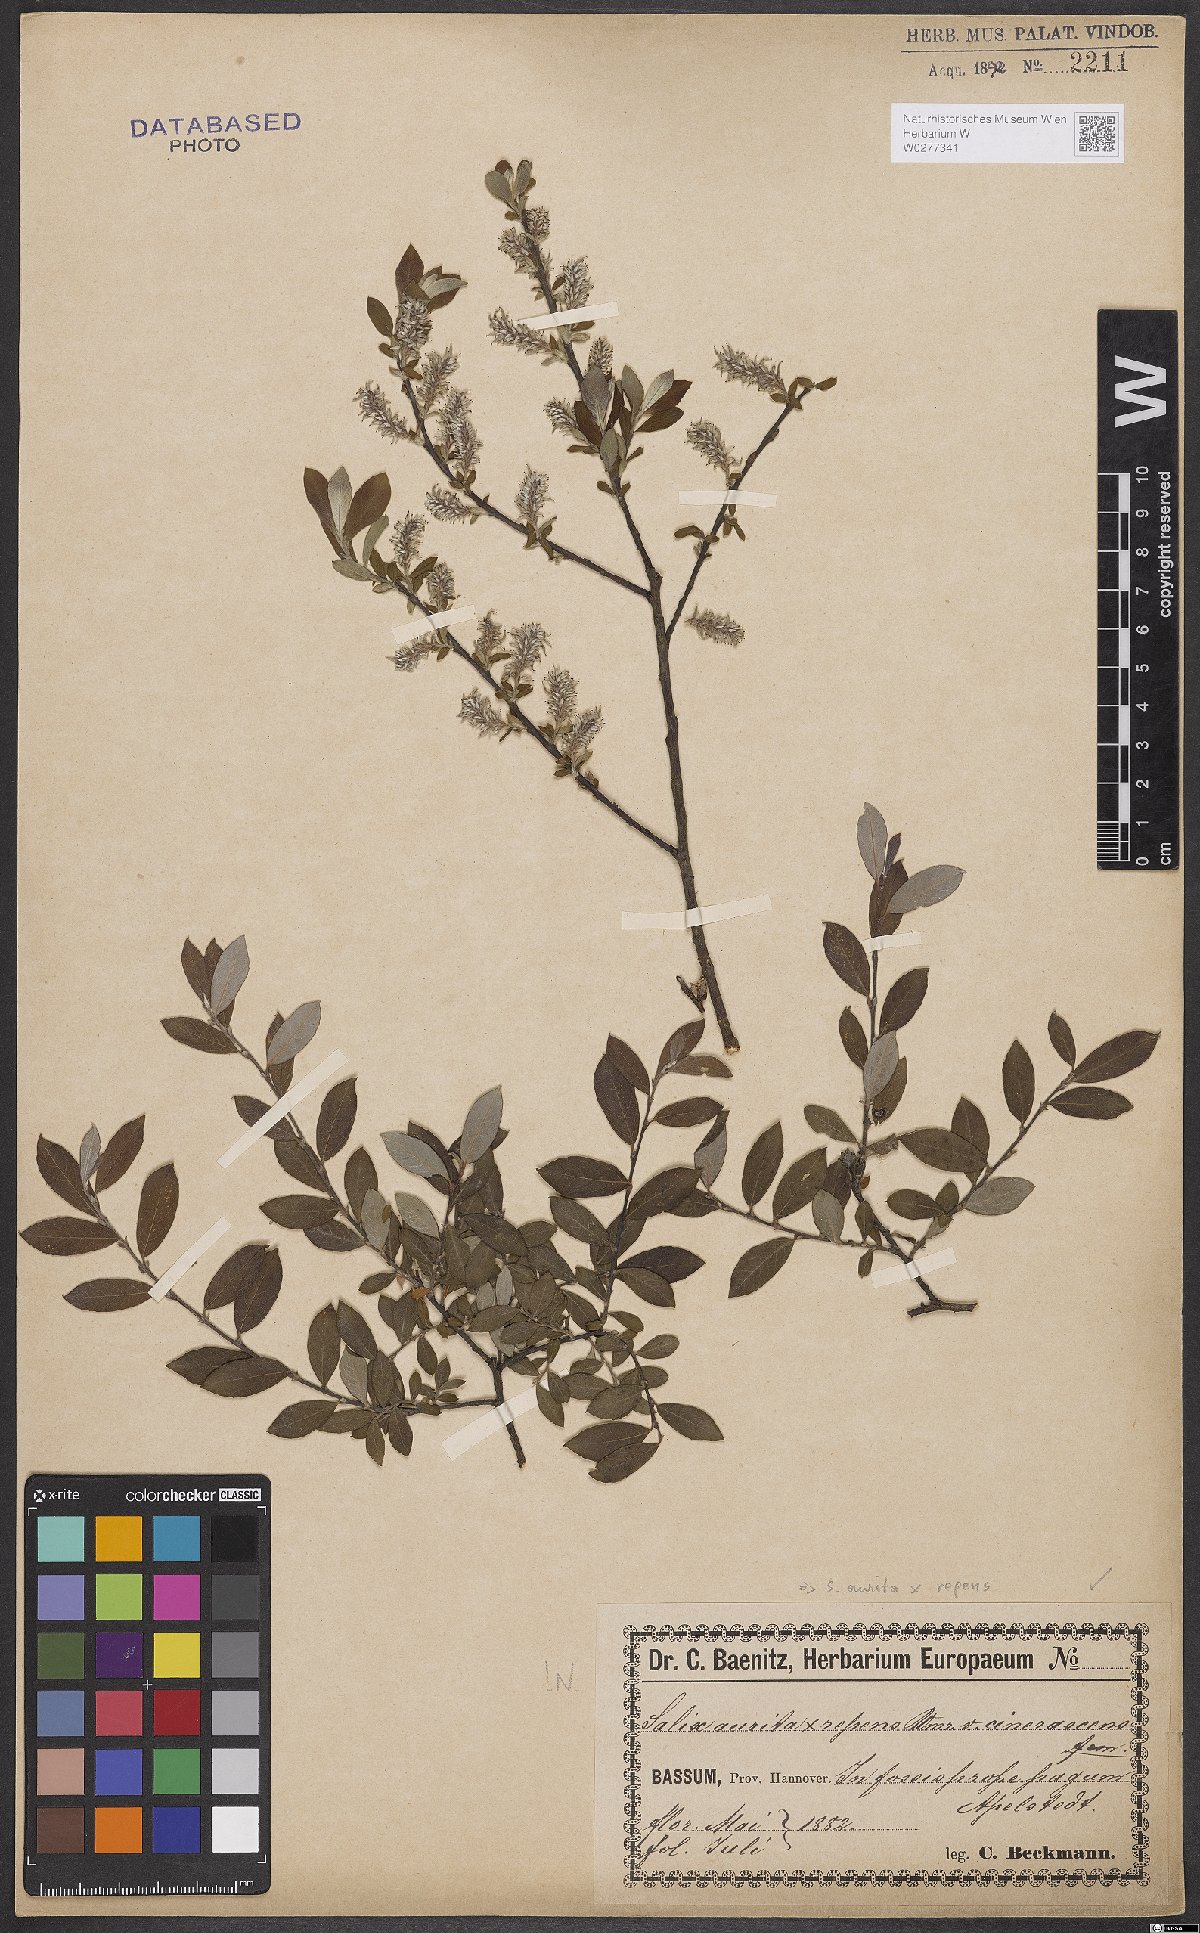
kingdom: Plantae
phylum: Tracheophyta
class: Magnoliopsida
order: Malpighiales
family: Salicaceae
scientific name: Salicaceae
